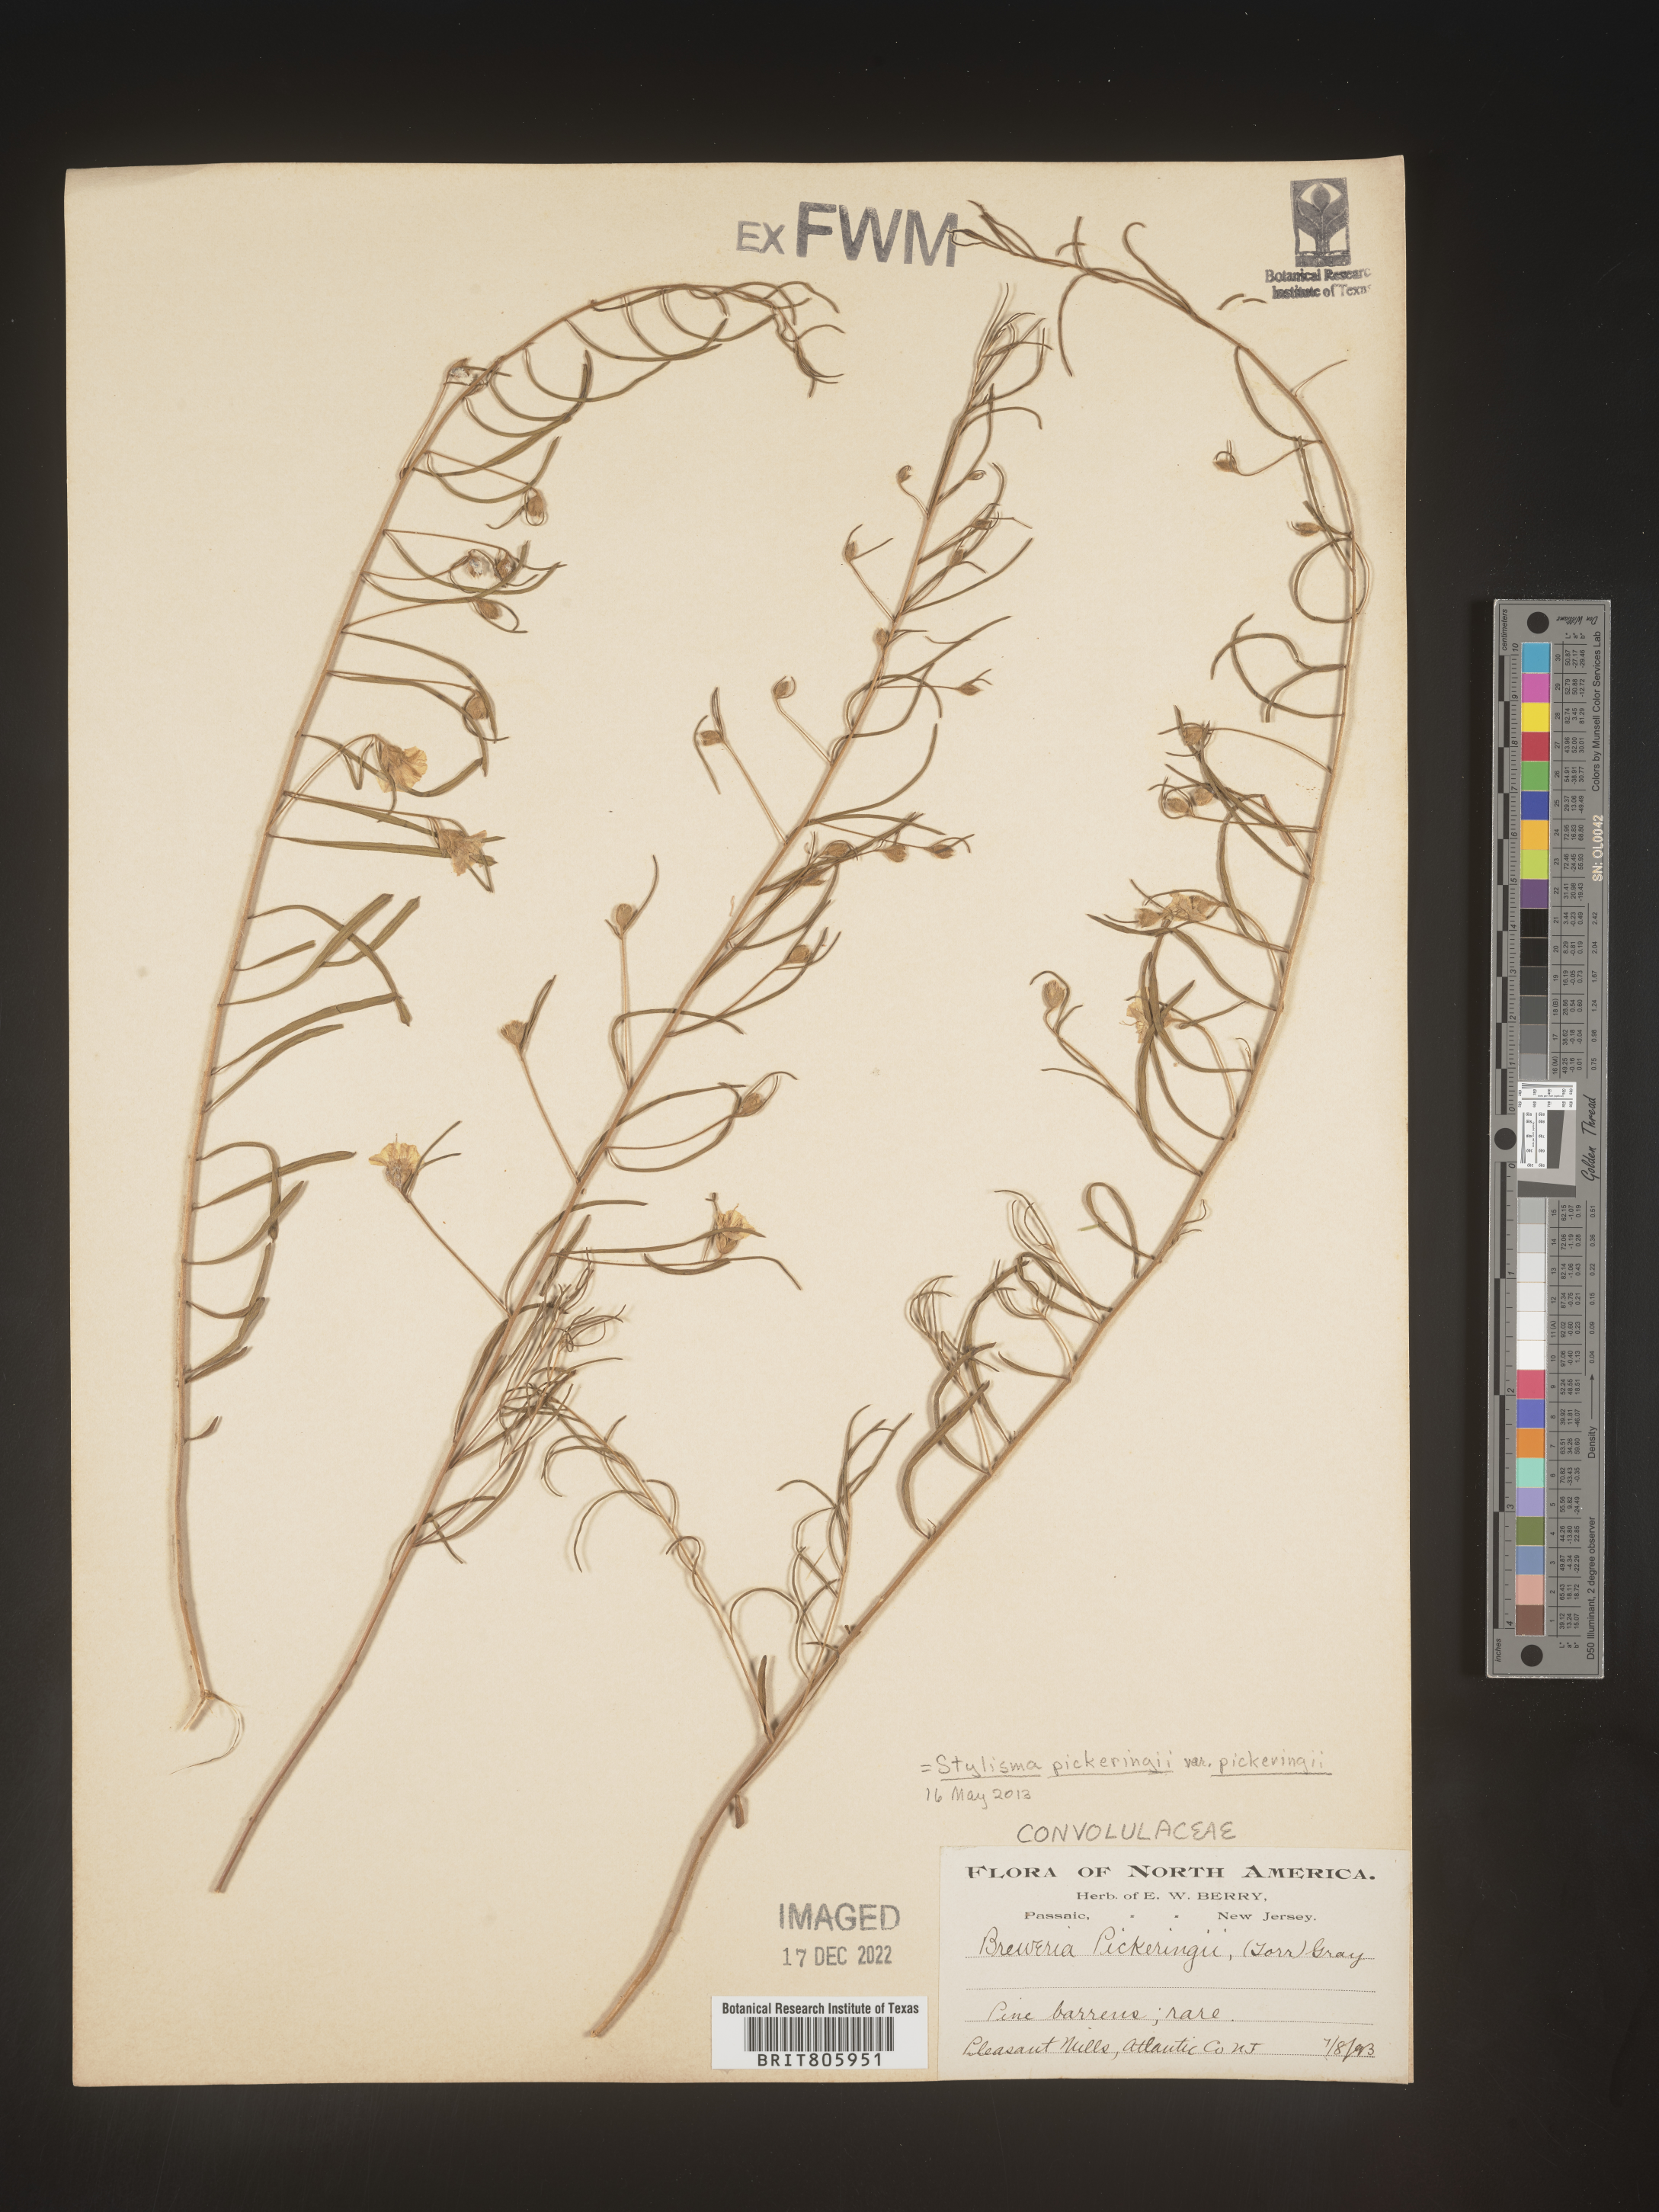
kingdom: Plantae
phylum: Tracheophyta
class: Magnoliopsida
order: Solanales
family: Convolvulaceae
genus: Stylisma
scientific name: Stylisma
